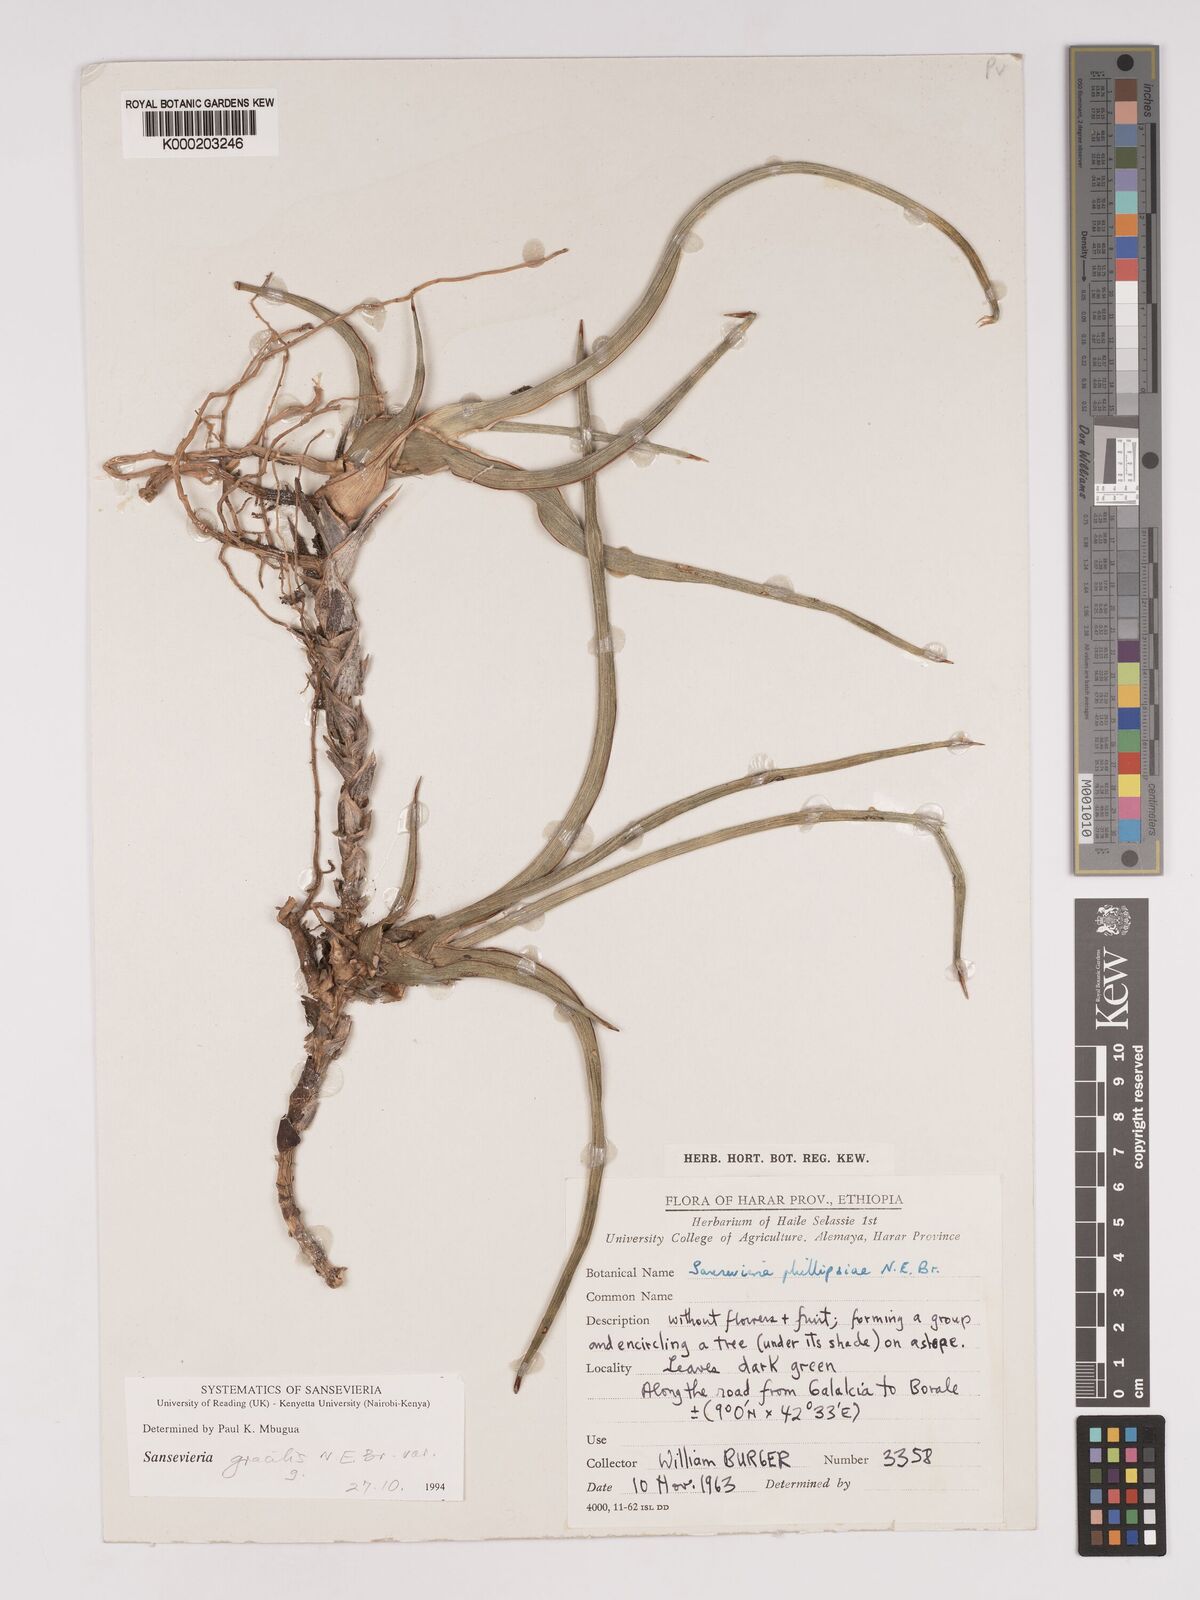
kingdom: Plantae
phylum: Tracheophyta
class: Liliopsida
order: Asparagales
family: Asparagaceae
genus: Dracaena
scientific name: Dracaena phillipsiae
